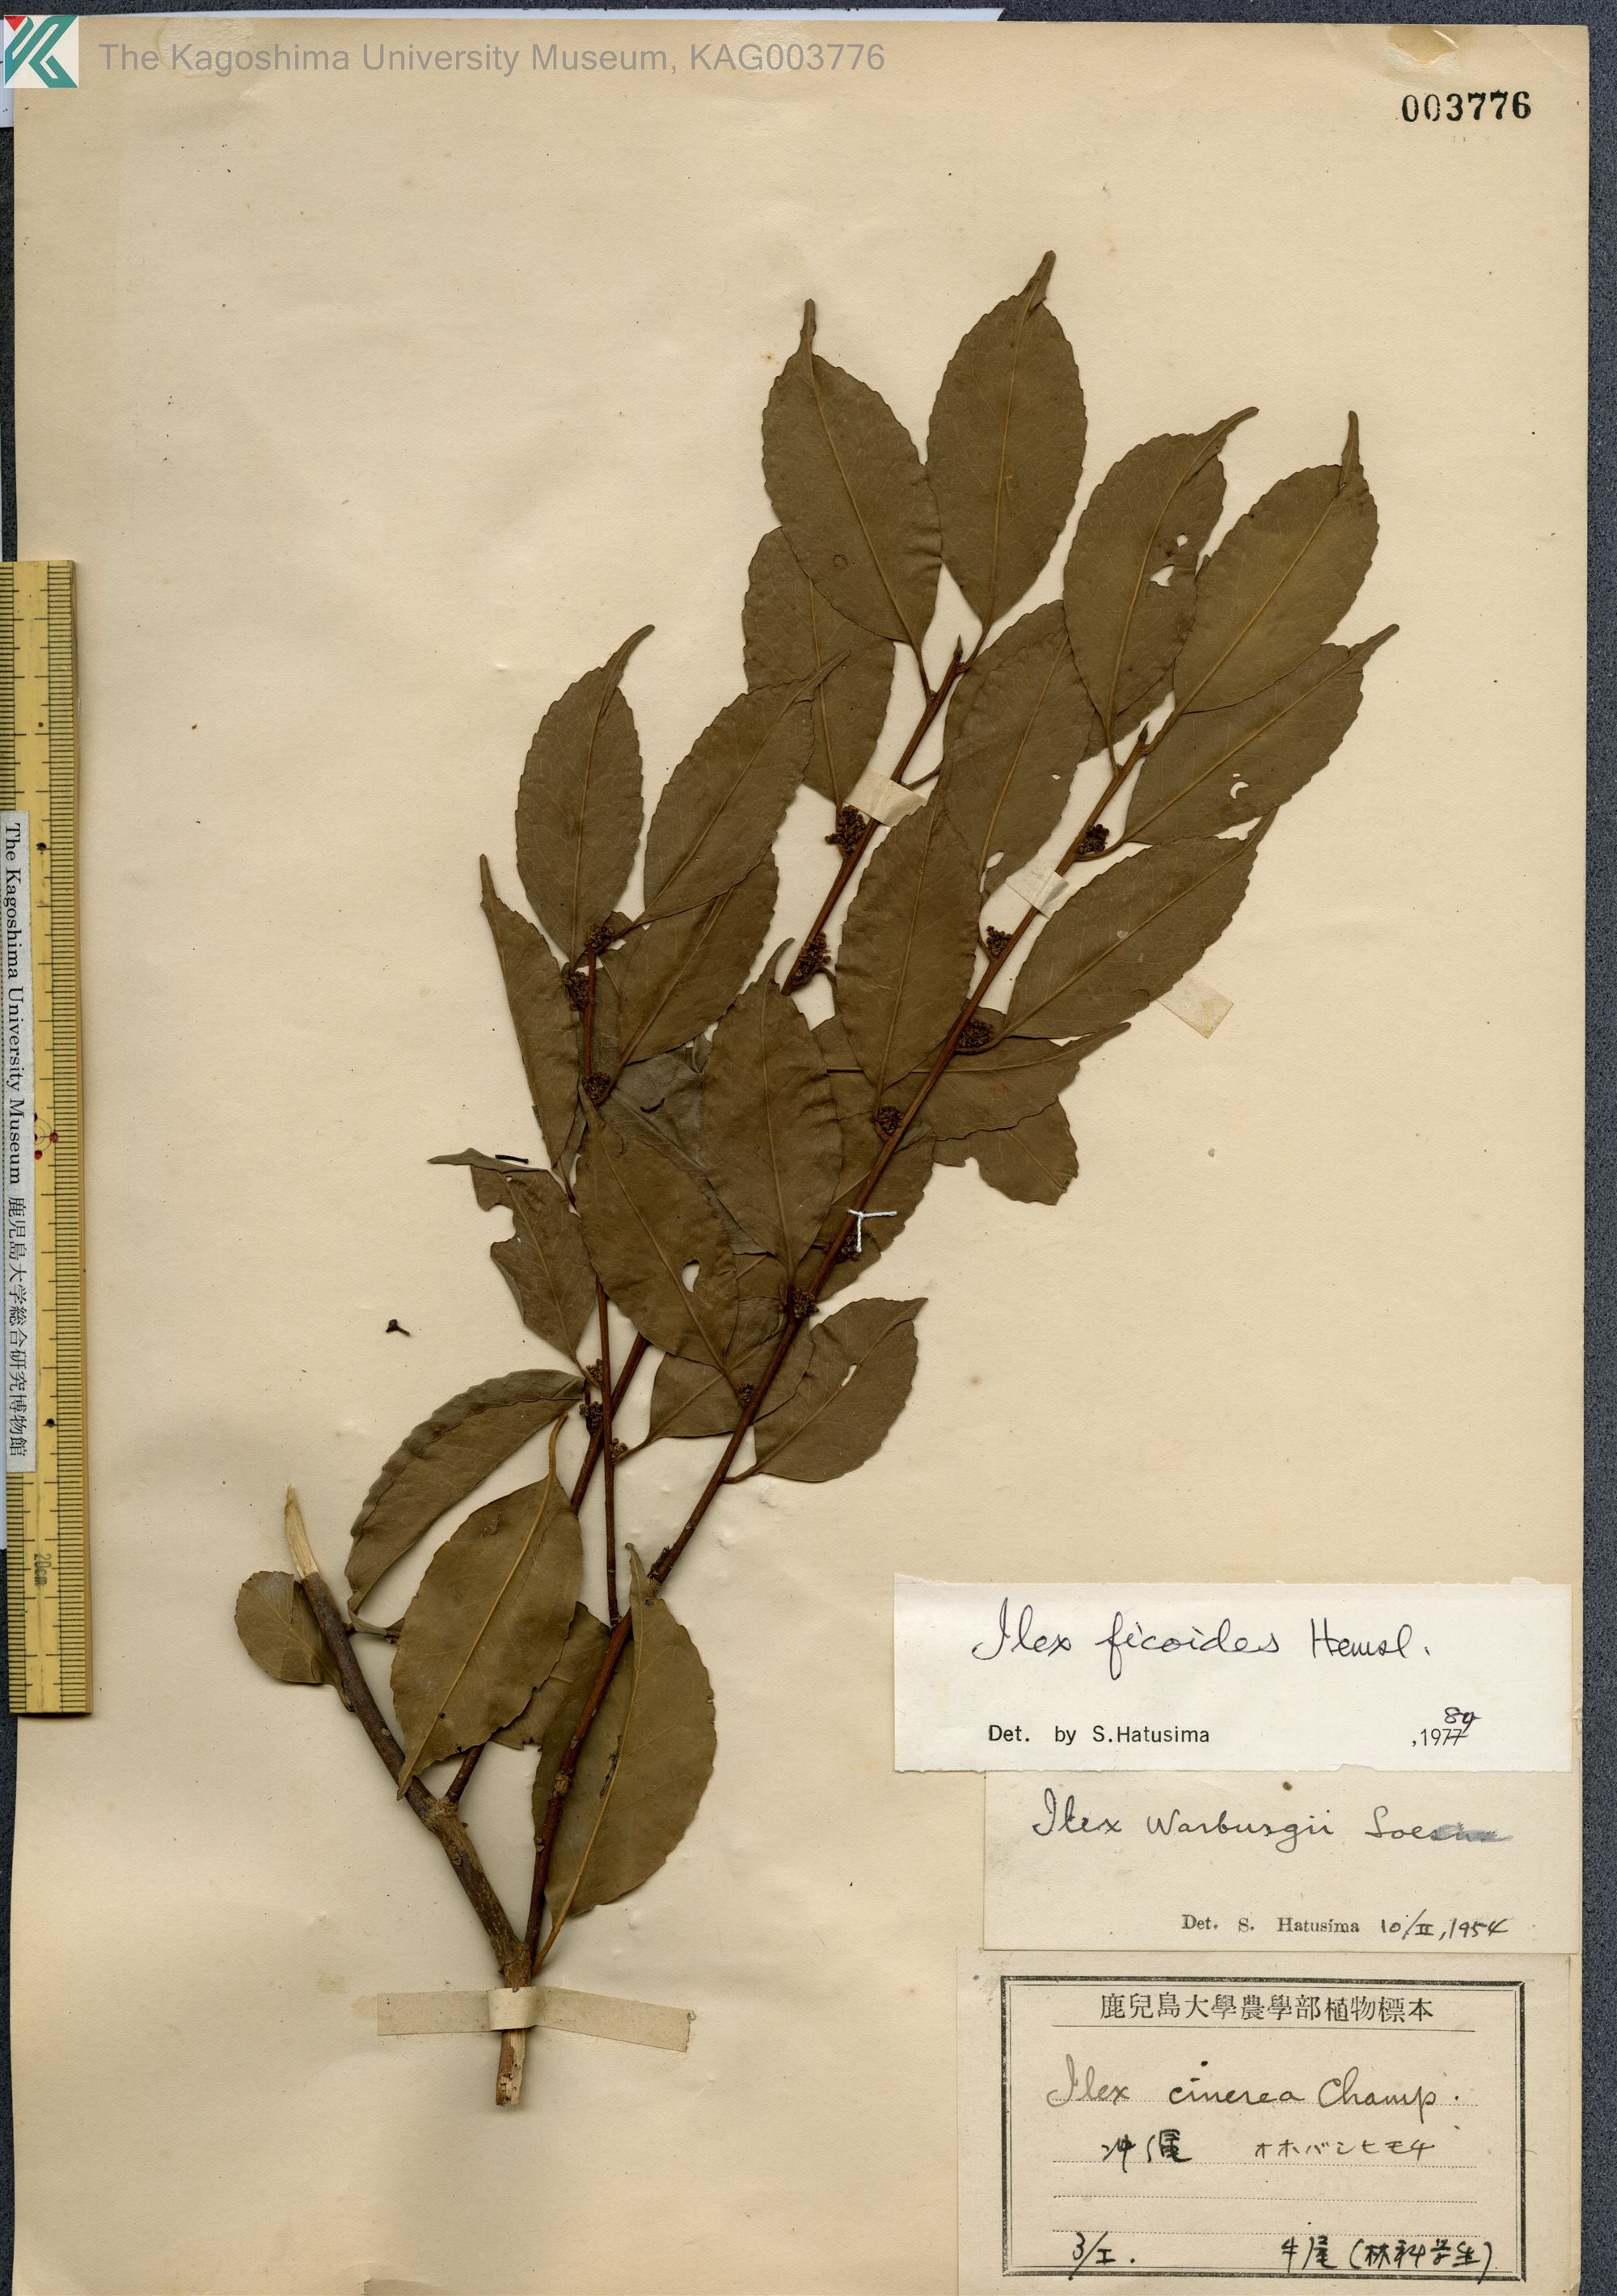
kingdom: Plantae
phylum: Tracheophyta
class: Magnoliopsida
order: Aquifoliales
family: Aquifoliaceae
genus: Ilex
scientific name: Ilex warburgii
